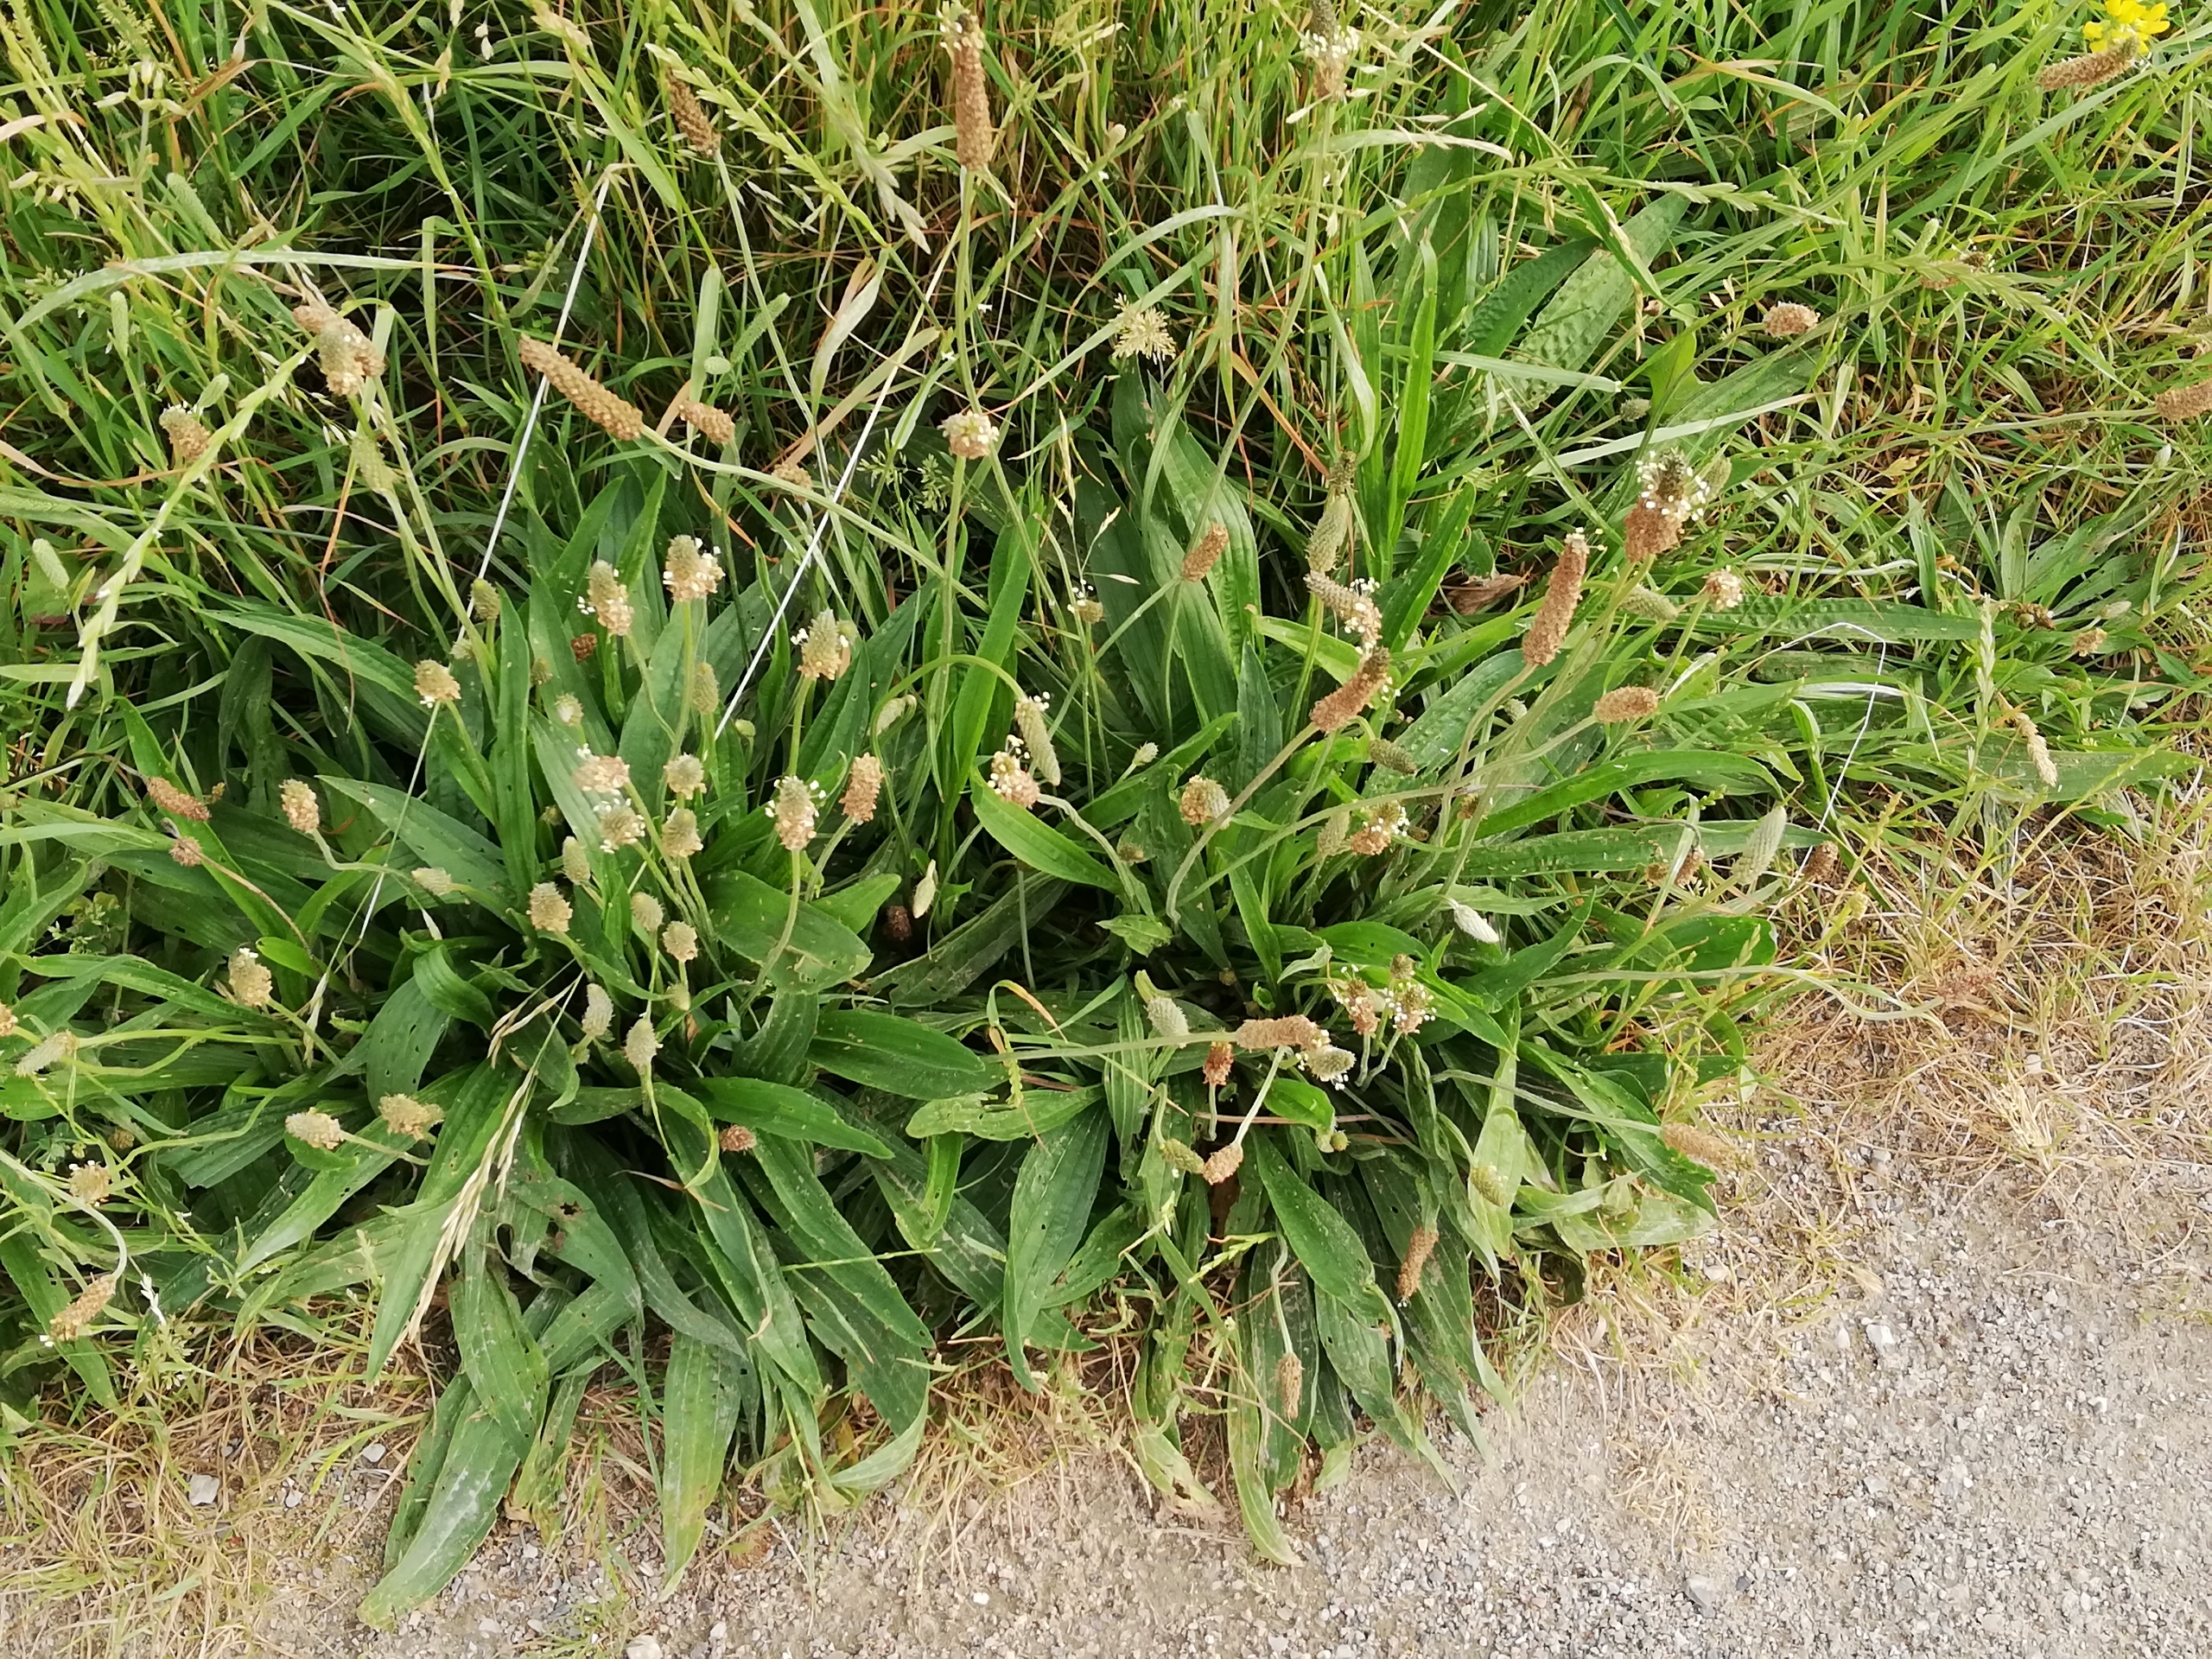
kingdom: Plantae
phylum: Tracheophyta
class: Magnoliopsida
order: Lamiales
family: Plantaginaceae
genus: Plantago
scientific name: Plantago lanceolata
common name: Lancet-vejbred
